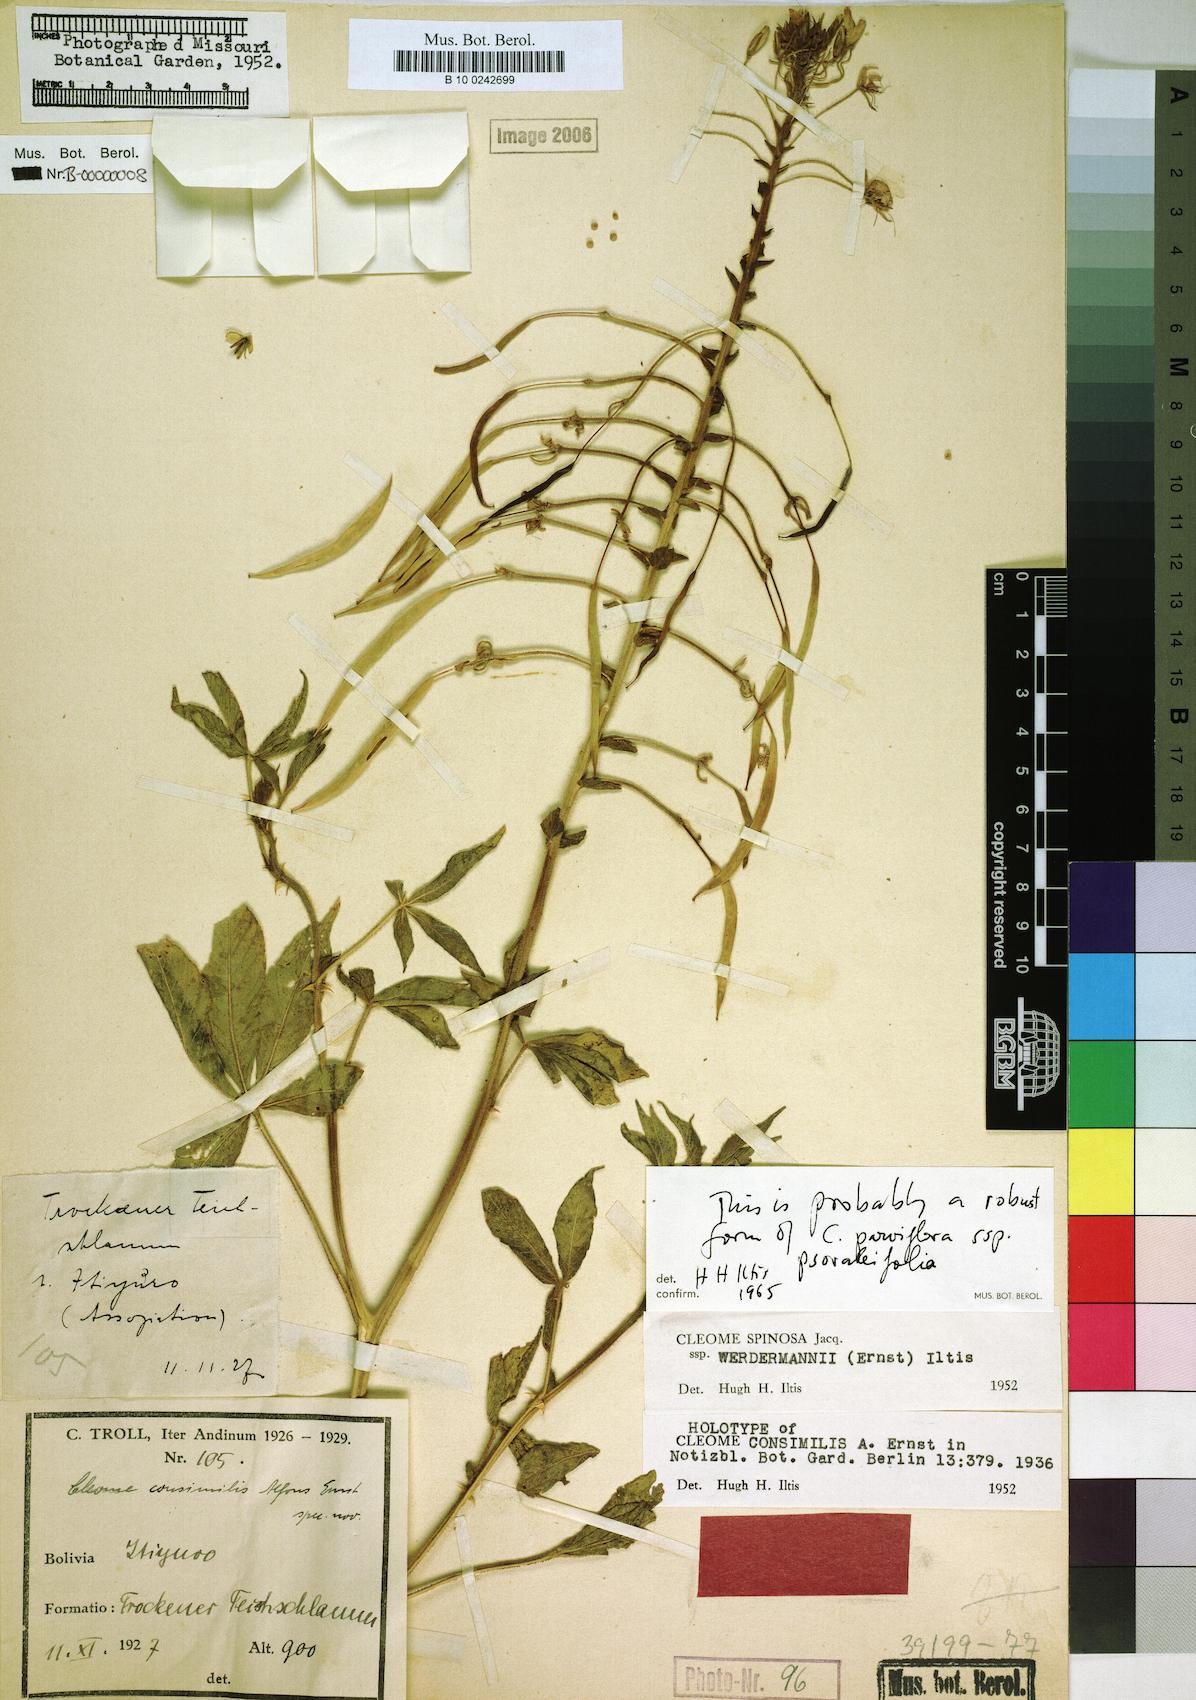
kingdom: Plantae
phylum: Tracheophyta
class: Magnoliopsida
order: Brassicales
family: Cleomaceae
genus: Tarenaya
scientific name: Tarenaya psoraleifolia
